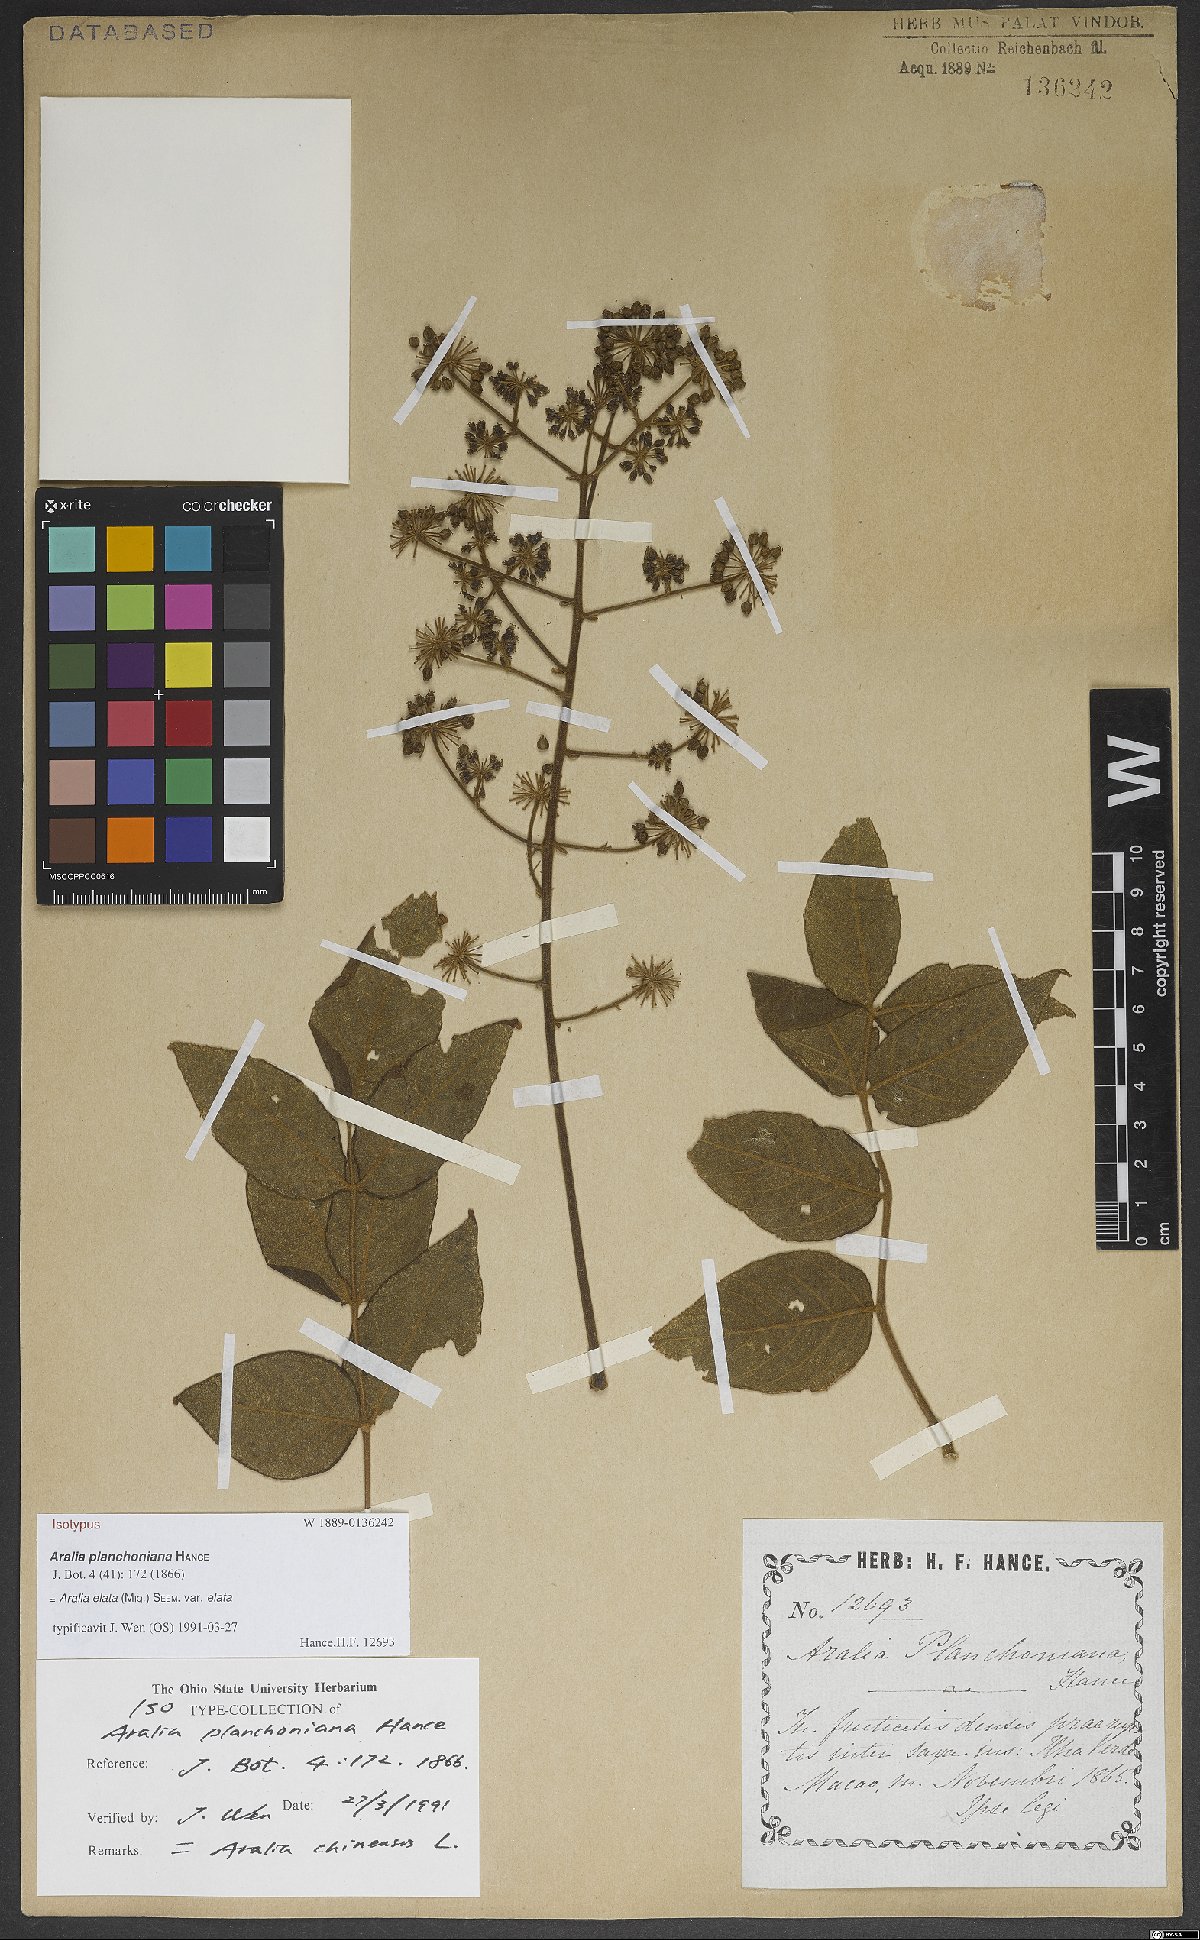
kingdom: Plantae
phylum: Tracheophyta
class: Magnoliopsida
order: Apiales
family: Araliaceae
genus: Aralia
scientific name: Aralia elata
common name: Japanese angelica-tree
